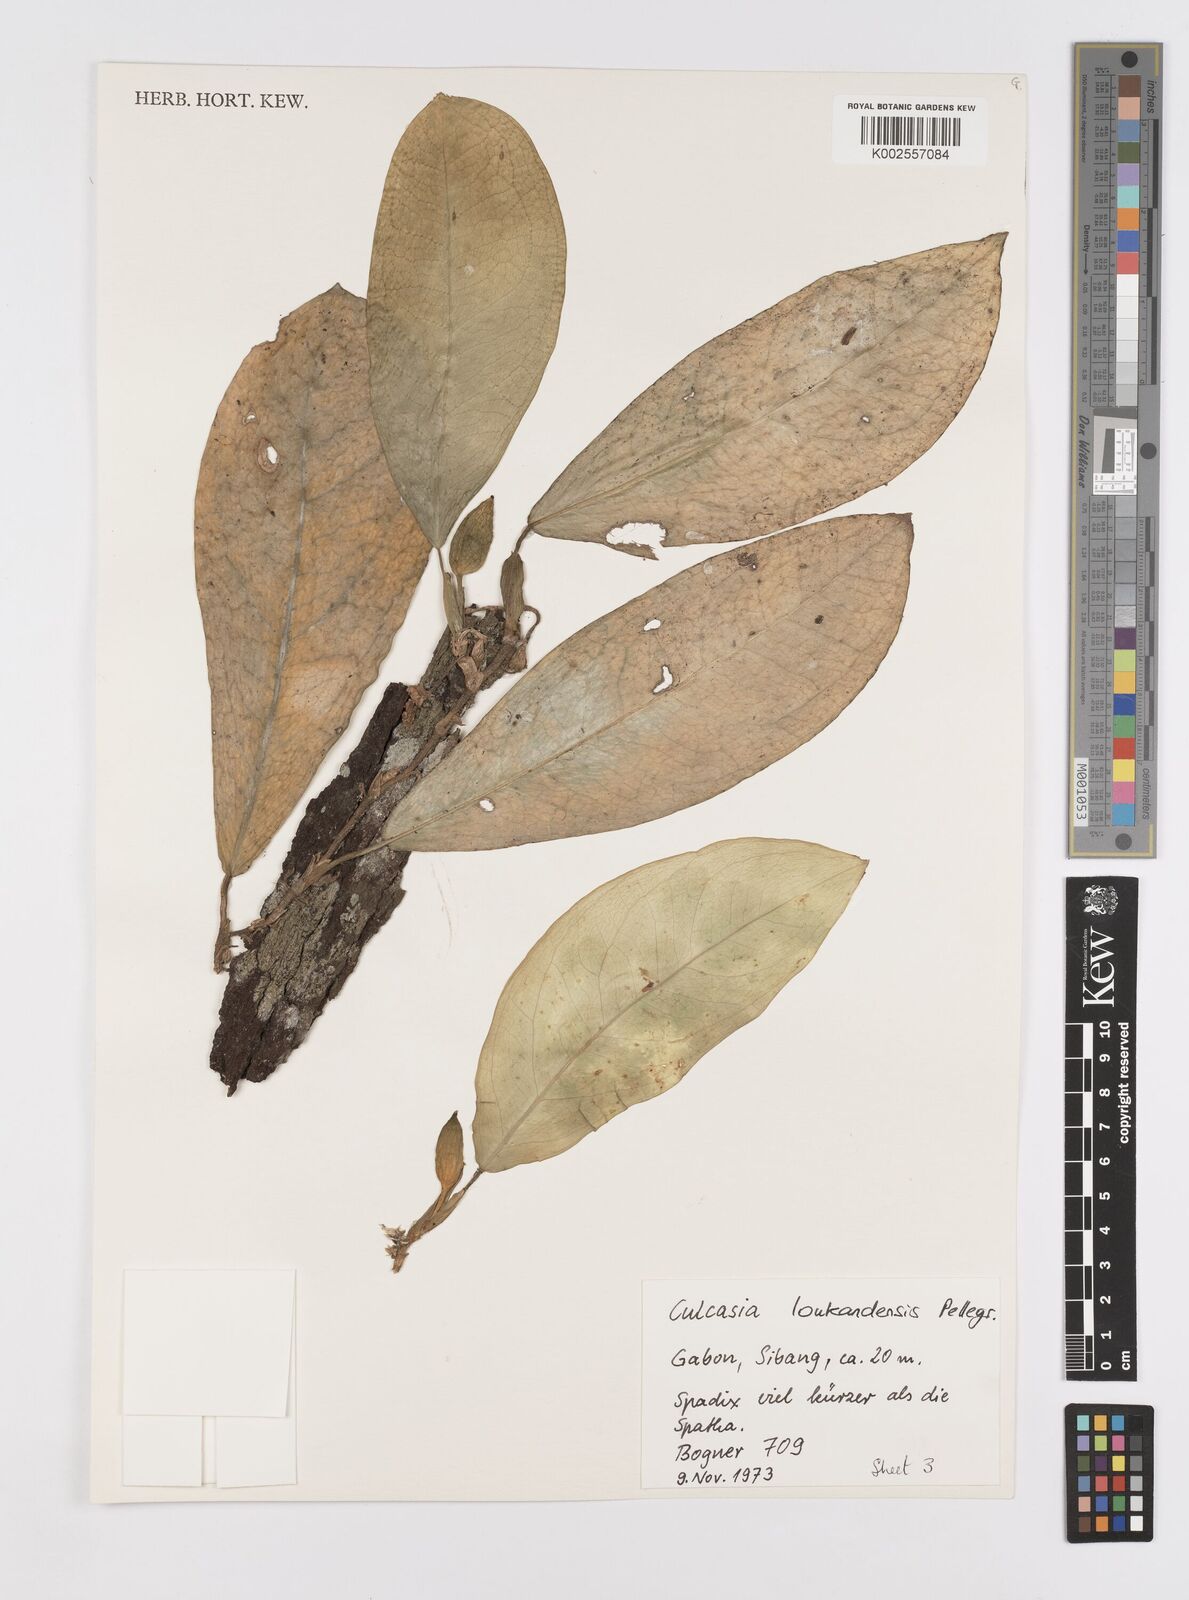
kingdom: Plantae
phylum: Tracheophyta
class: Liliopsida
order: Alismatales
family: Araceae
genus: Culcasia
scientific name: Culcasia loukandensis
